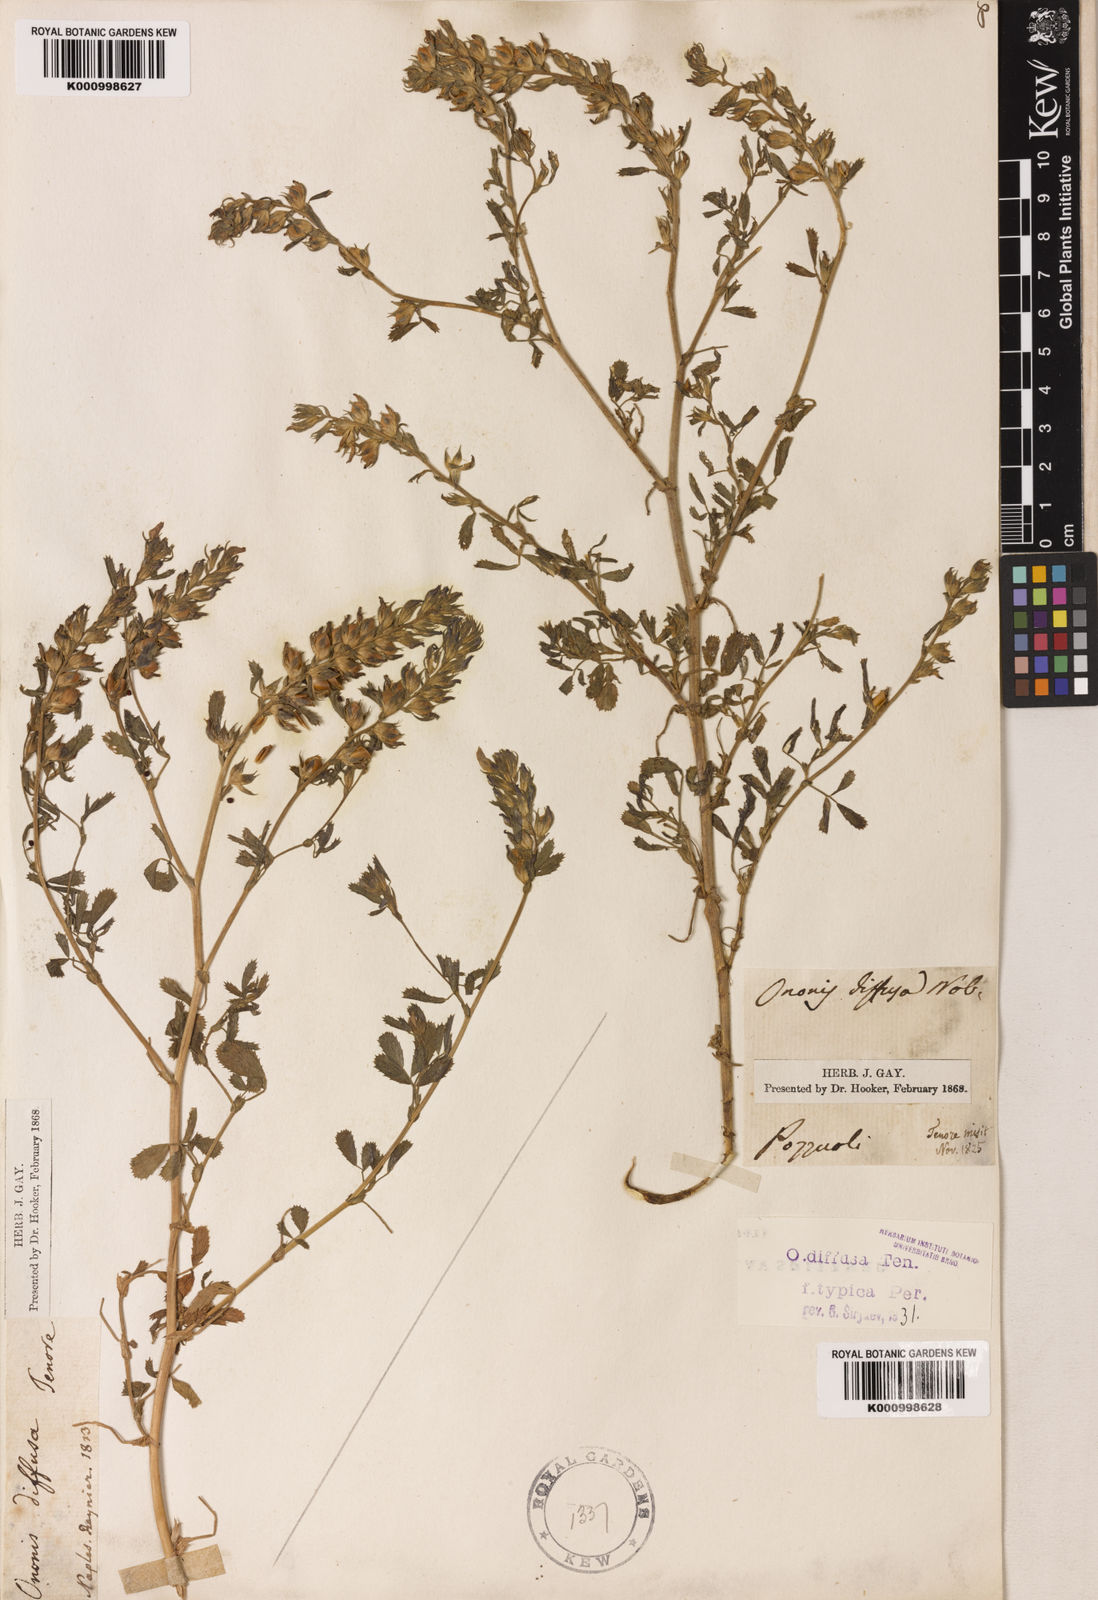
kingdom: Plantae
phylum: Tracheophyta
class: Magnoliopsida
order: Fabales
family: Fabaceae
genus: Ononis
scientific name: Ononis diffusa
